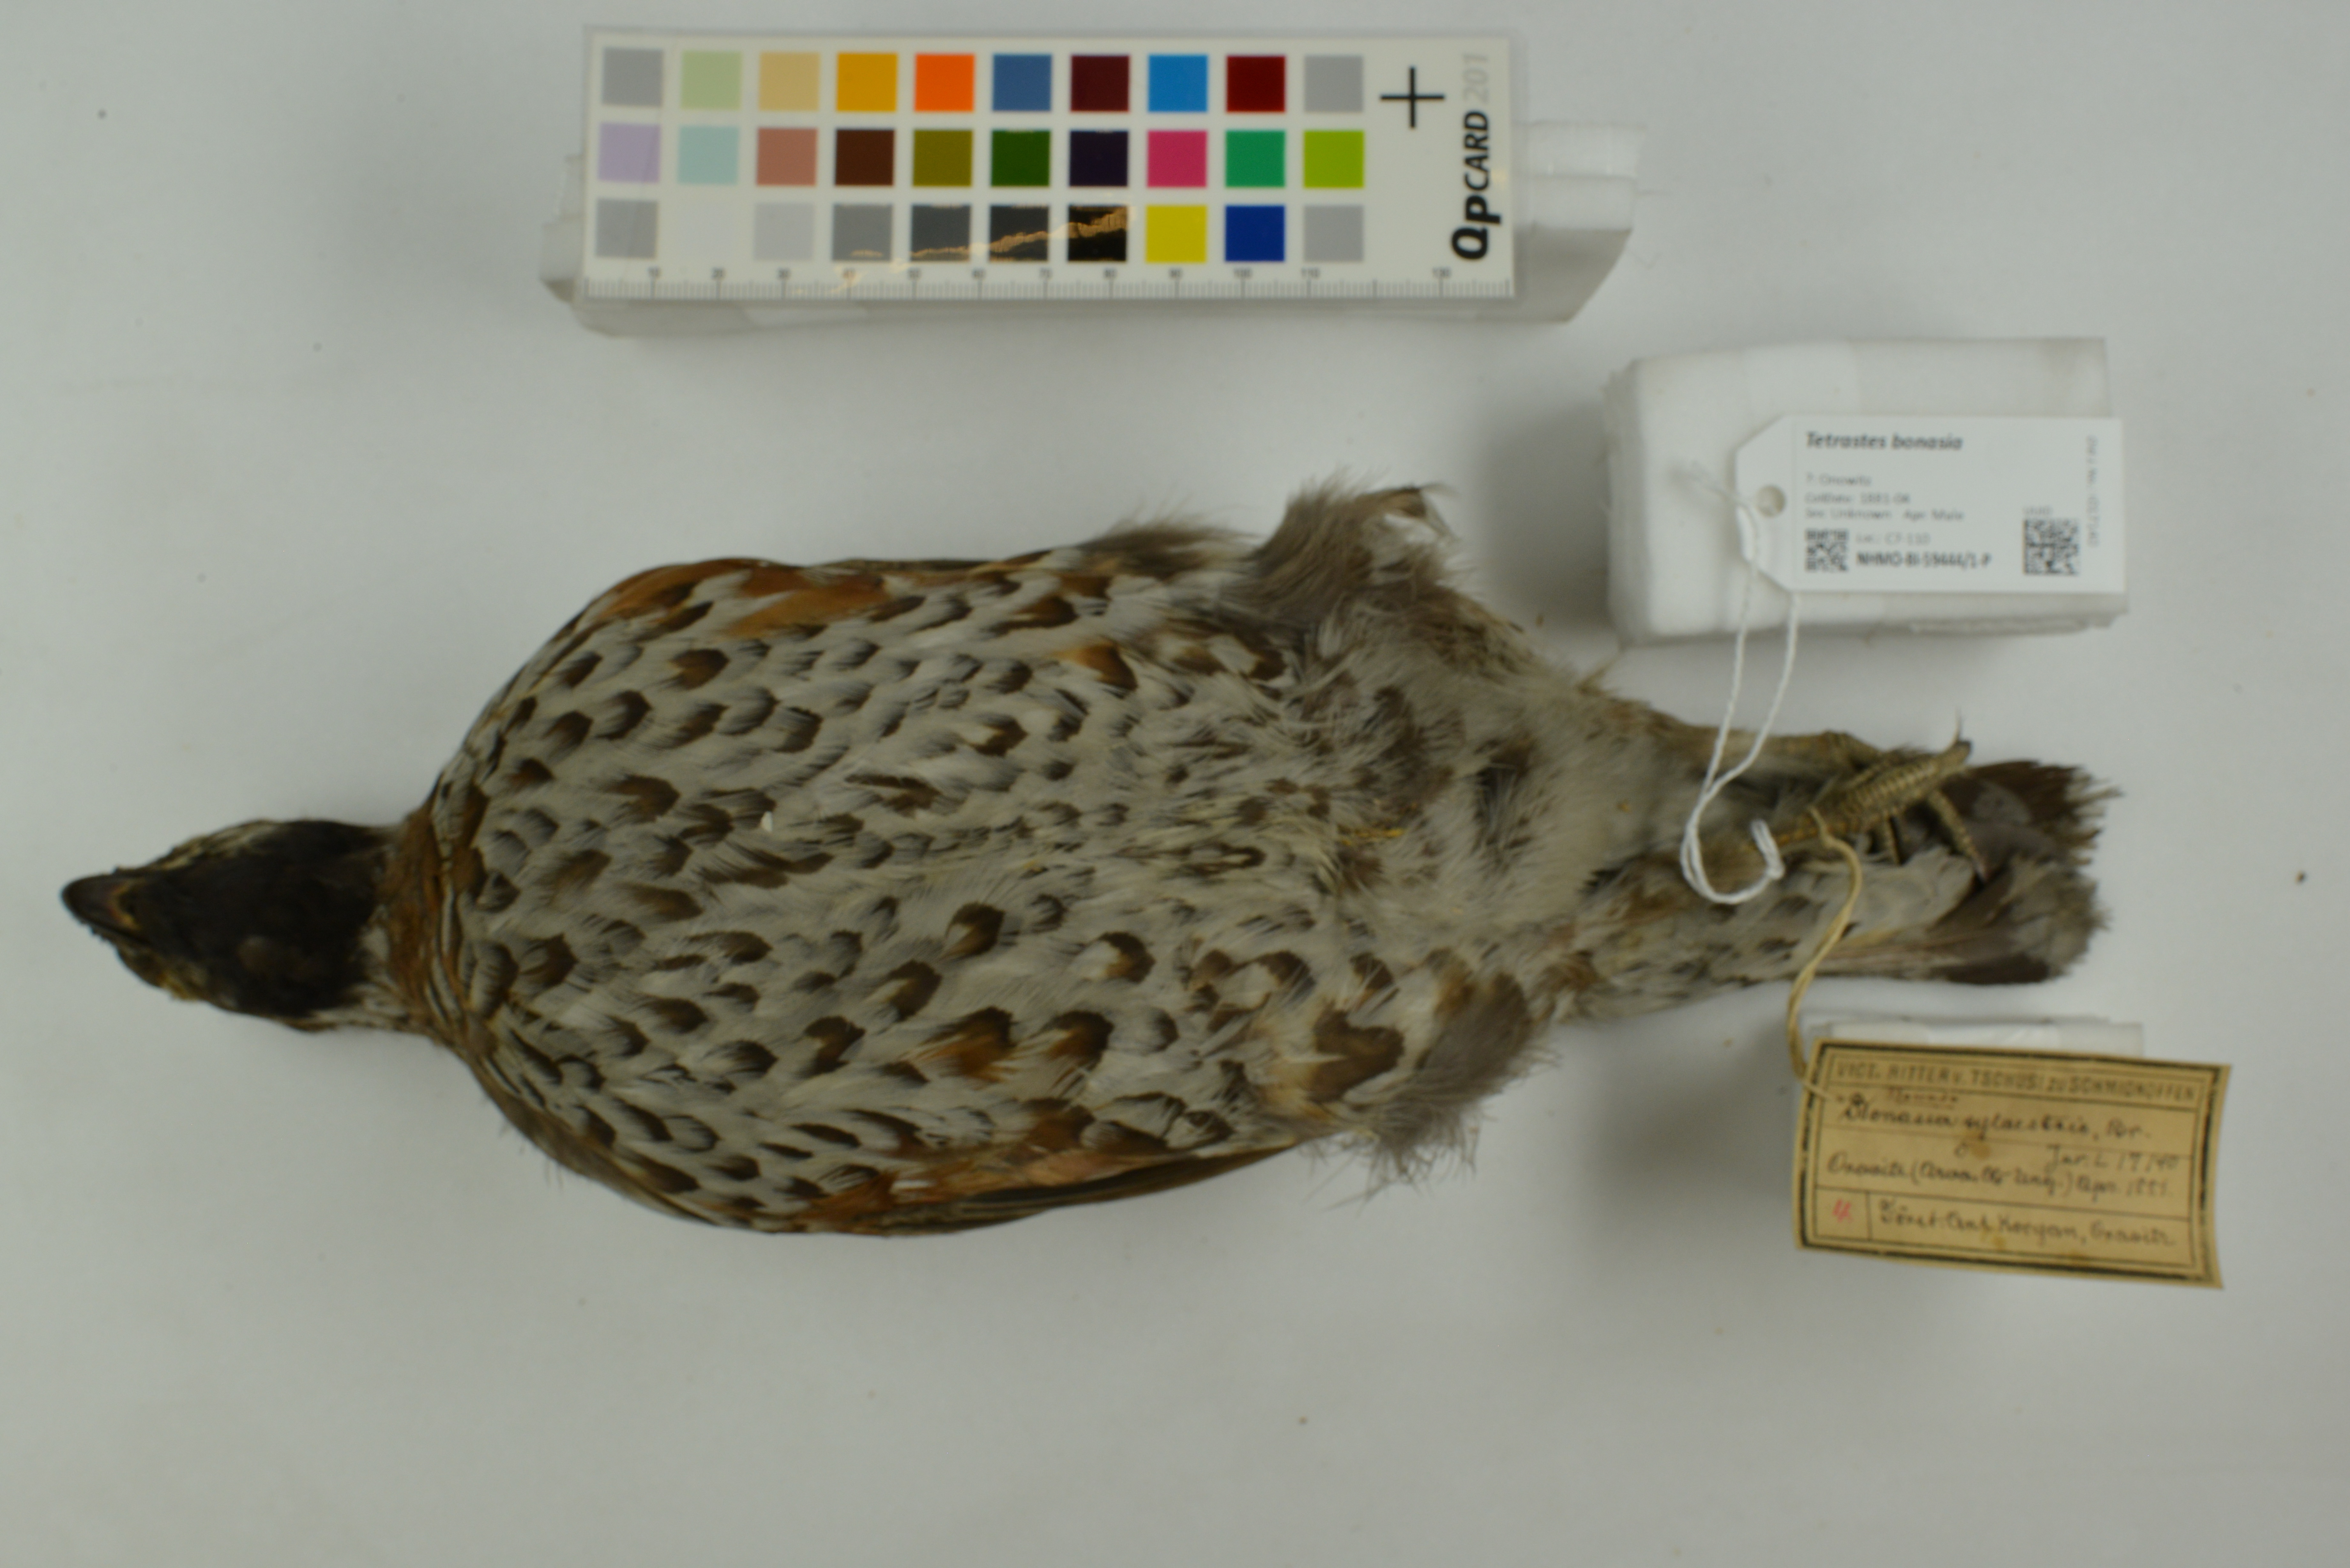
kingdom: Animalia
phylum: Chordata
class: Aves
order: Galliformes
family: Phasianidae
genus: Tetrastes
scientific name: Tetrastes bonasia
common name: Hazel grouse
